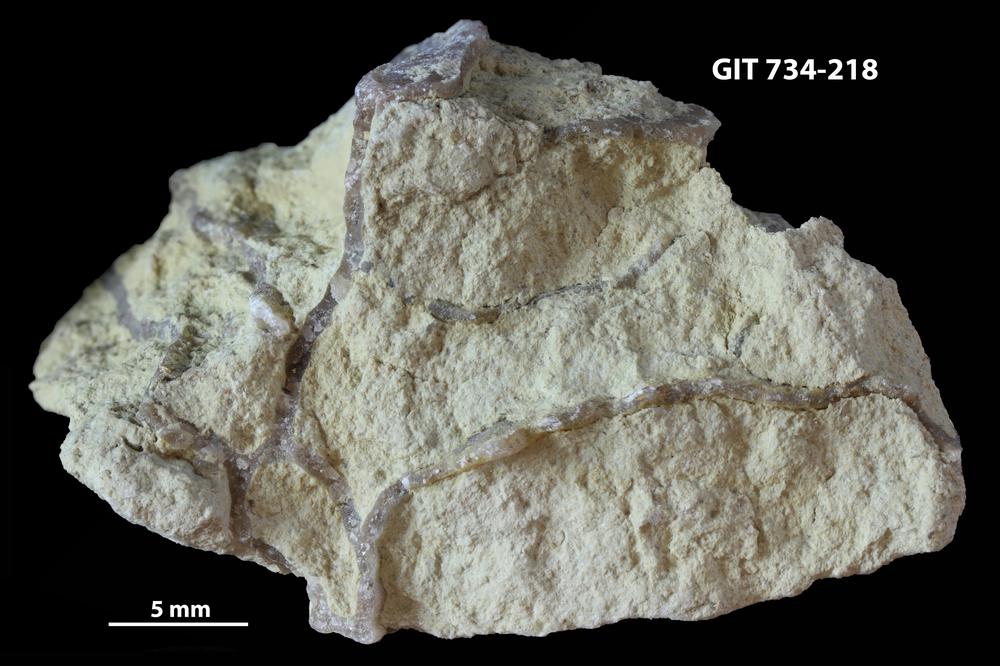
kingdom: Animalia
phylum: Cnidaria
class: Anthozoa
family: Cateniporidae
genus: Catenipora
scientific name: Catenipora
